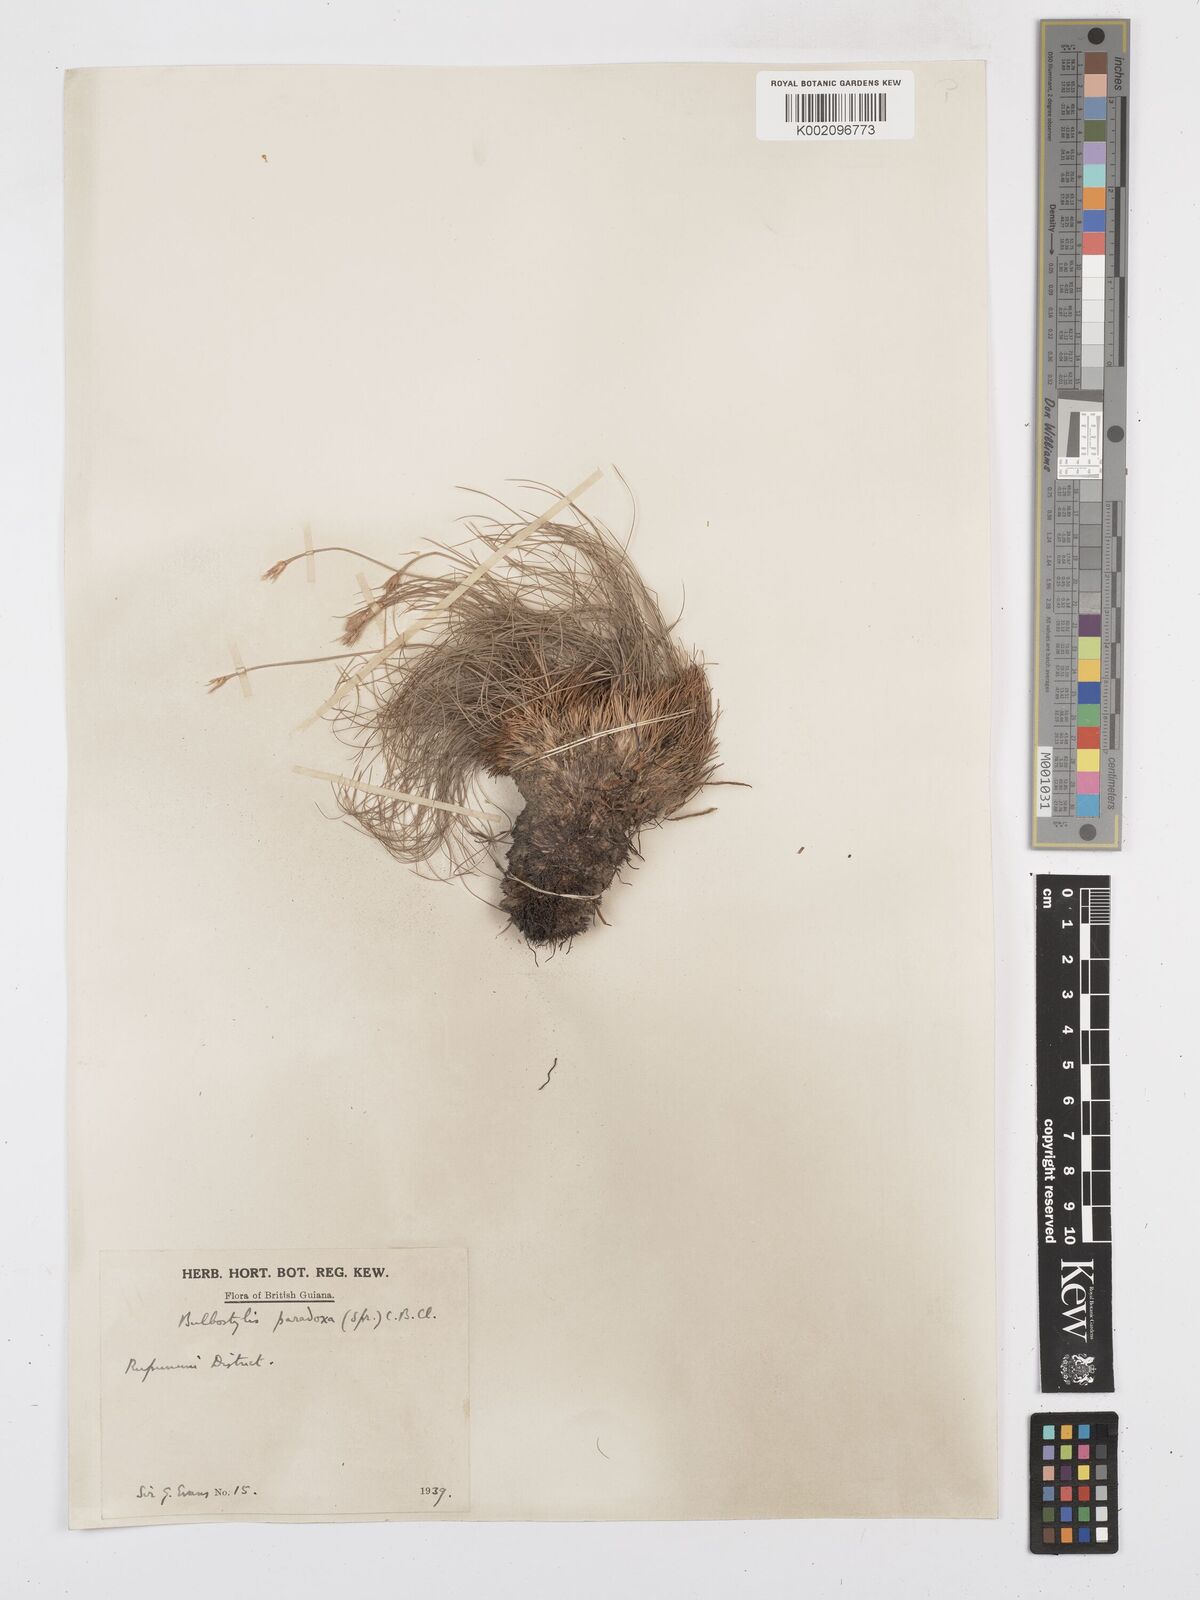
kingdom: Plantae
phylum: Tracheophyta
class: Liliopsida
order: Poales
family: Cyperaceae
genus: Bulbostylis
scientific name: Bulbostylis paradoxa
